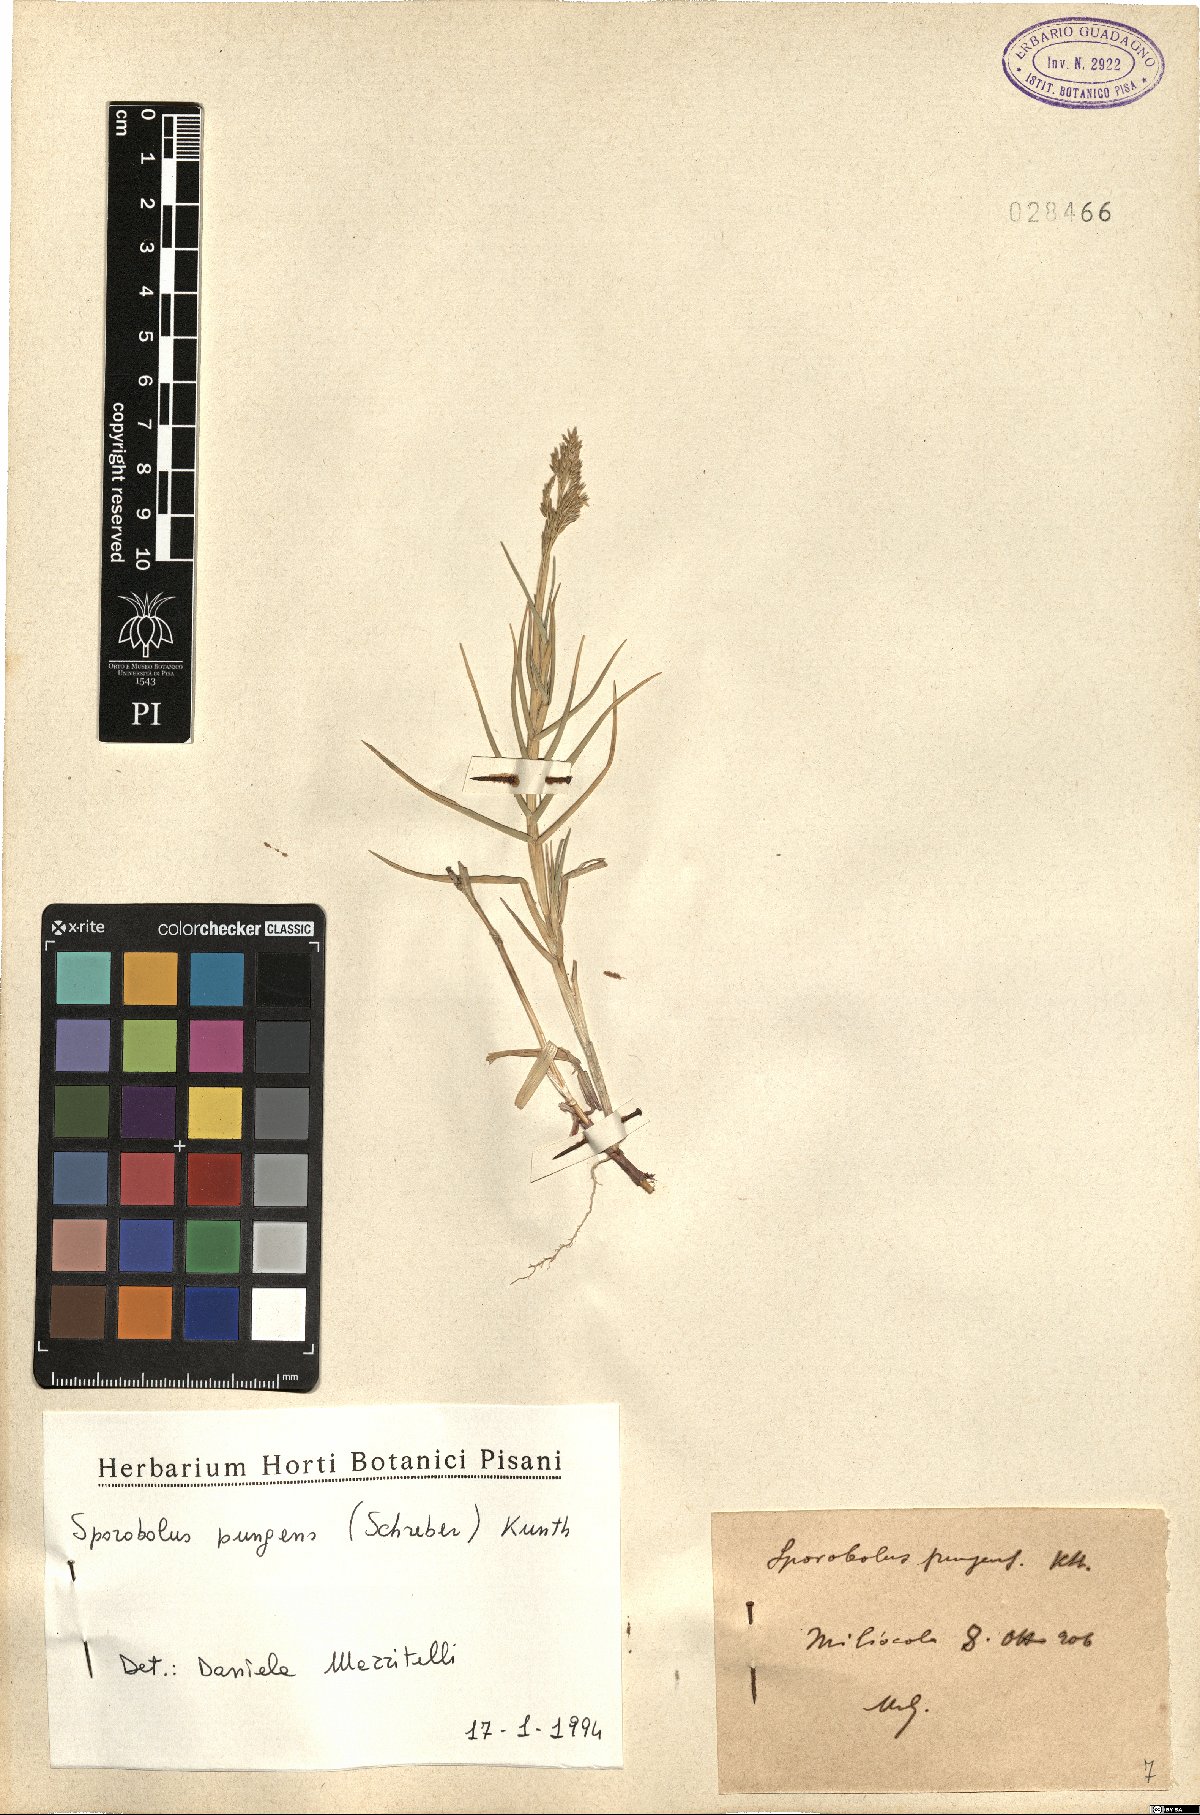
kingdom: Plantae
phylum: Tracheophyta
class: Liliopsida
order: Poales
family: Poaceae
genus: Sporobolus
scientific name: Sporobolus pungens
